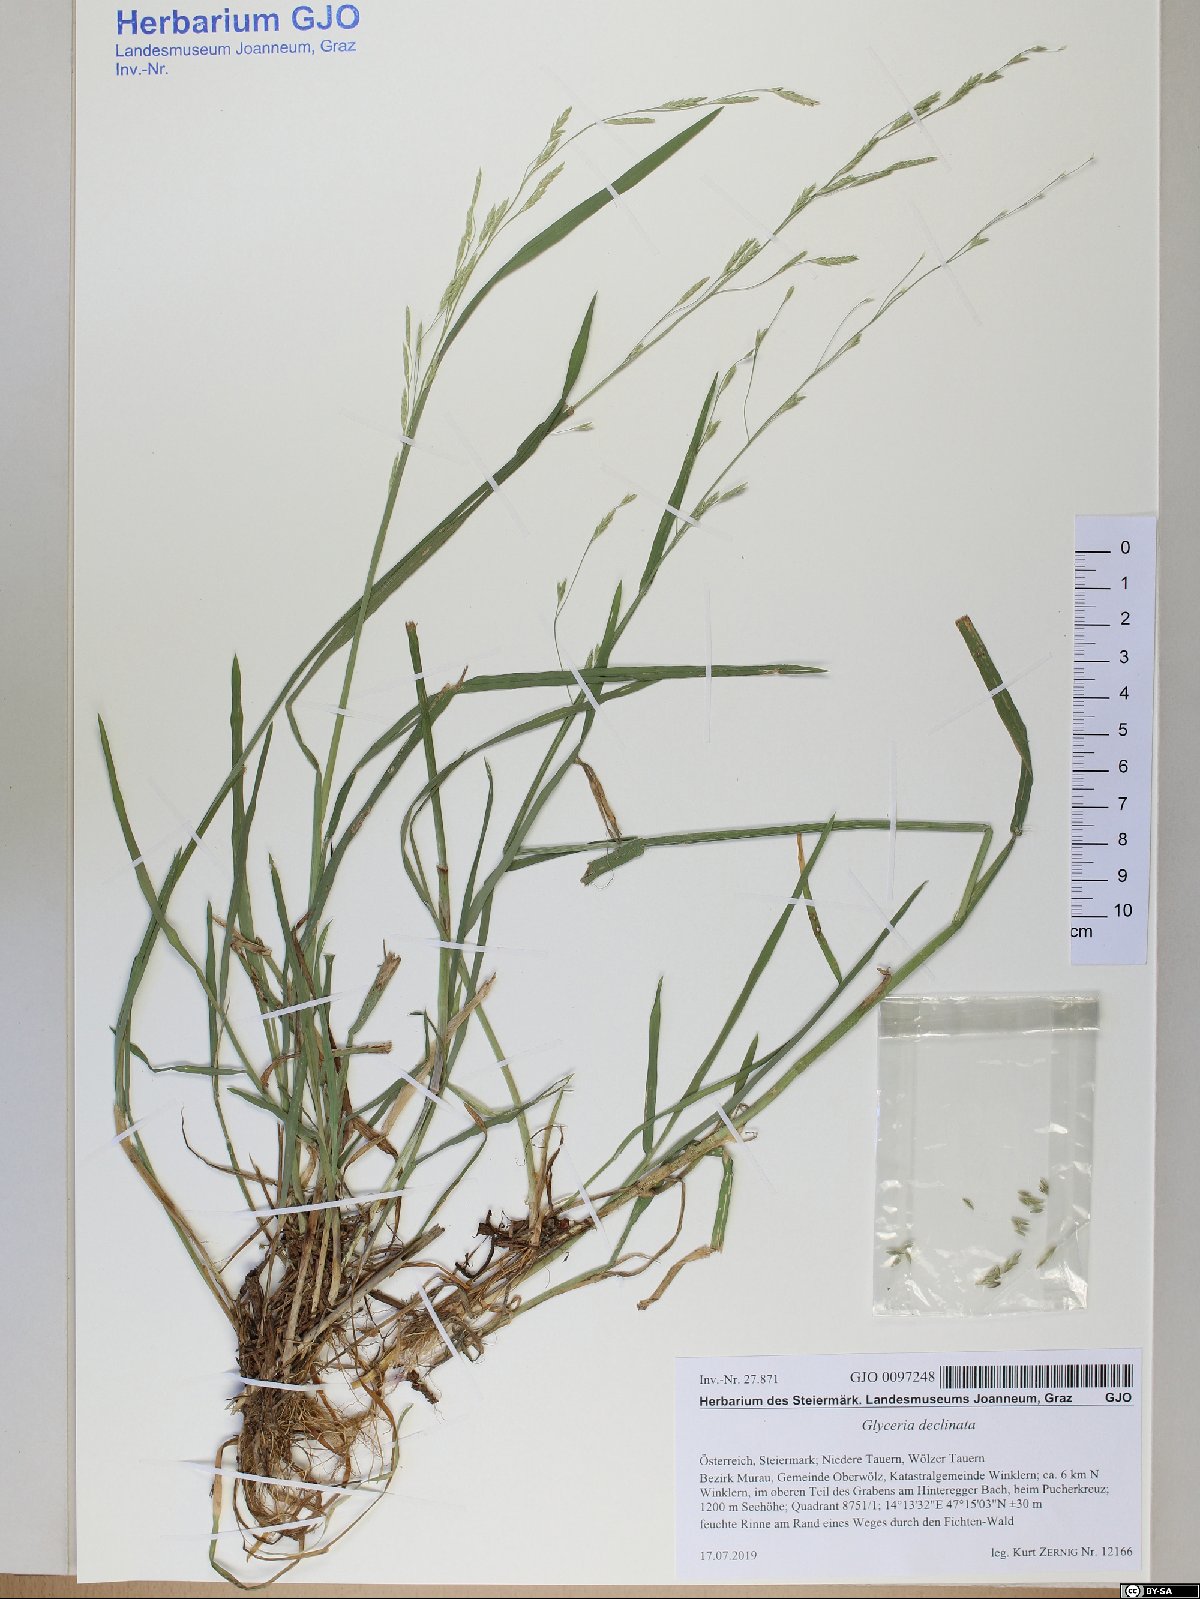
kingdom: Plantae
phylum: Tracheophyta
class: Liliopsida
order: Poales
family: Poaceae
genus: Glyceria
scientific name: Glyceria declinata
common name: Small sweet-grass
